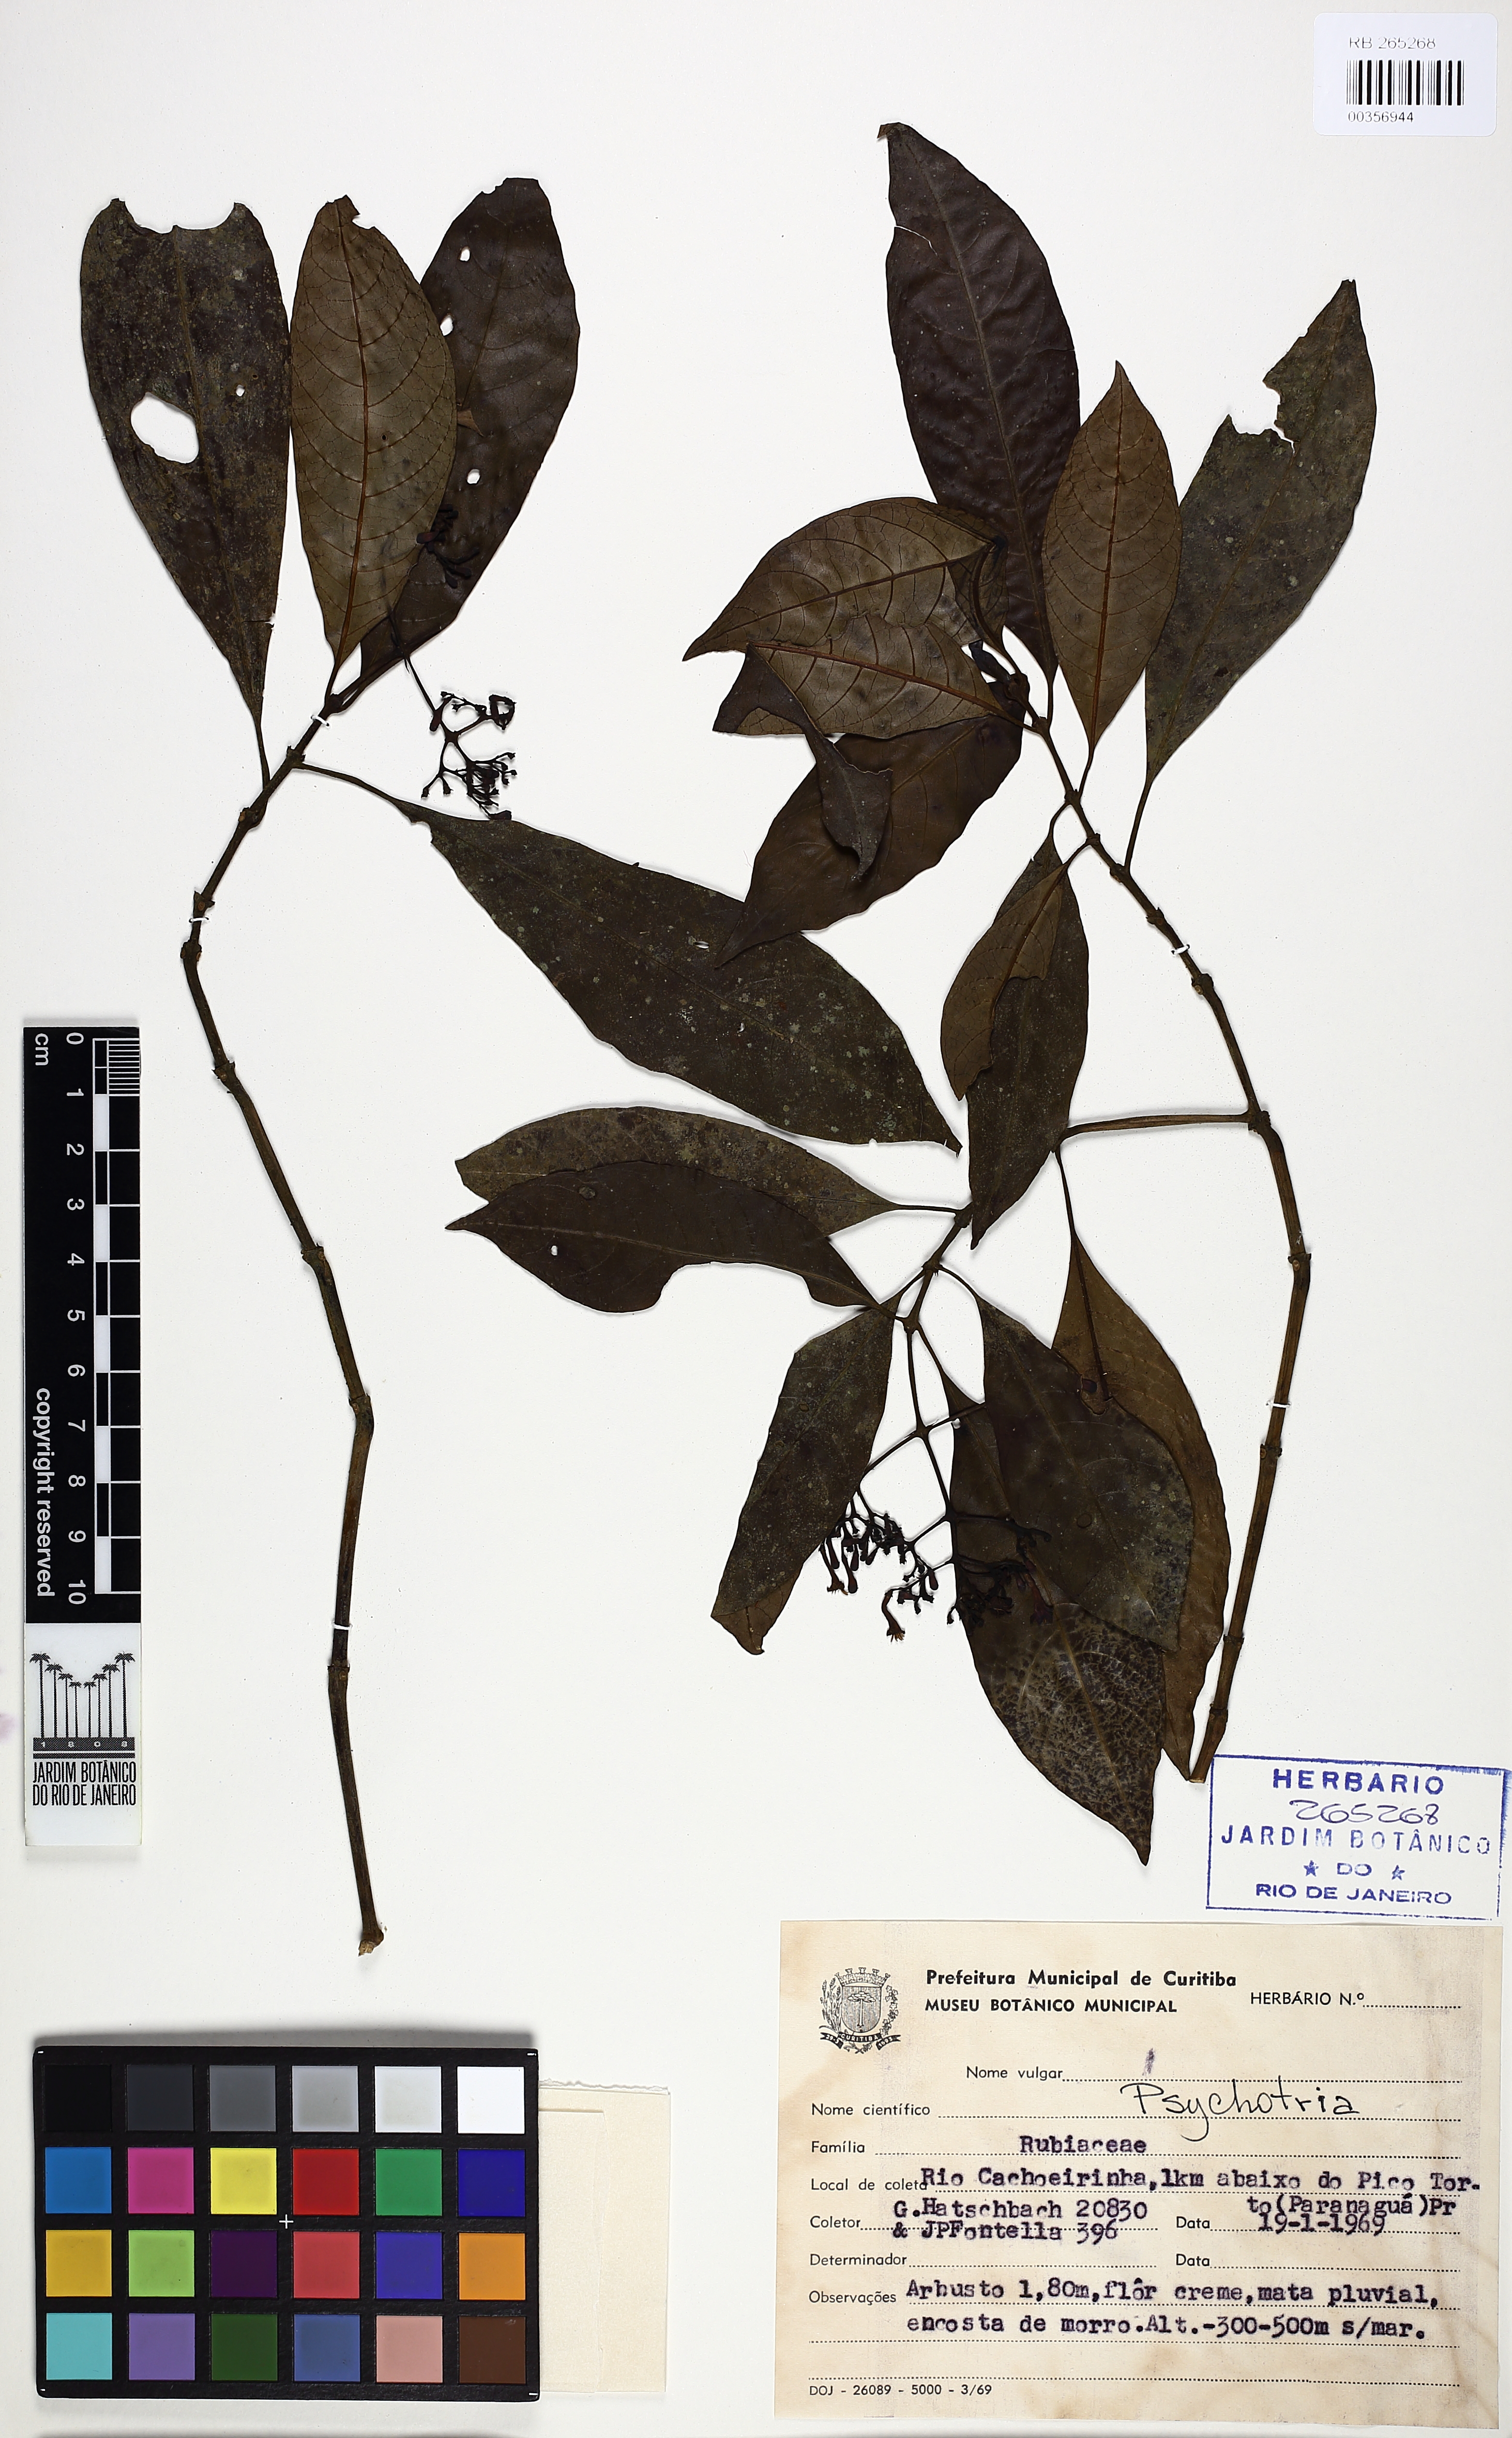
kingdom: Plantae
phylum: Tracheophyta
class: Magnoliopsida
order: Gentianales
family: Rubiaceae
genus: Psychotria
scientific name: Psychotria nemorosa
